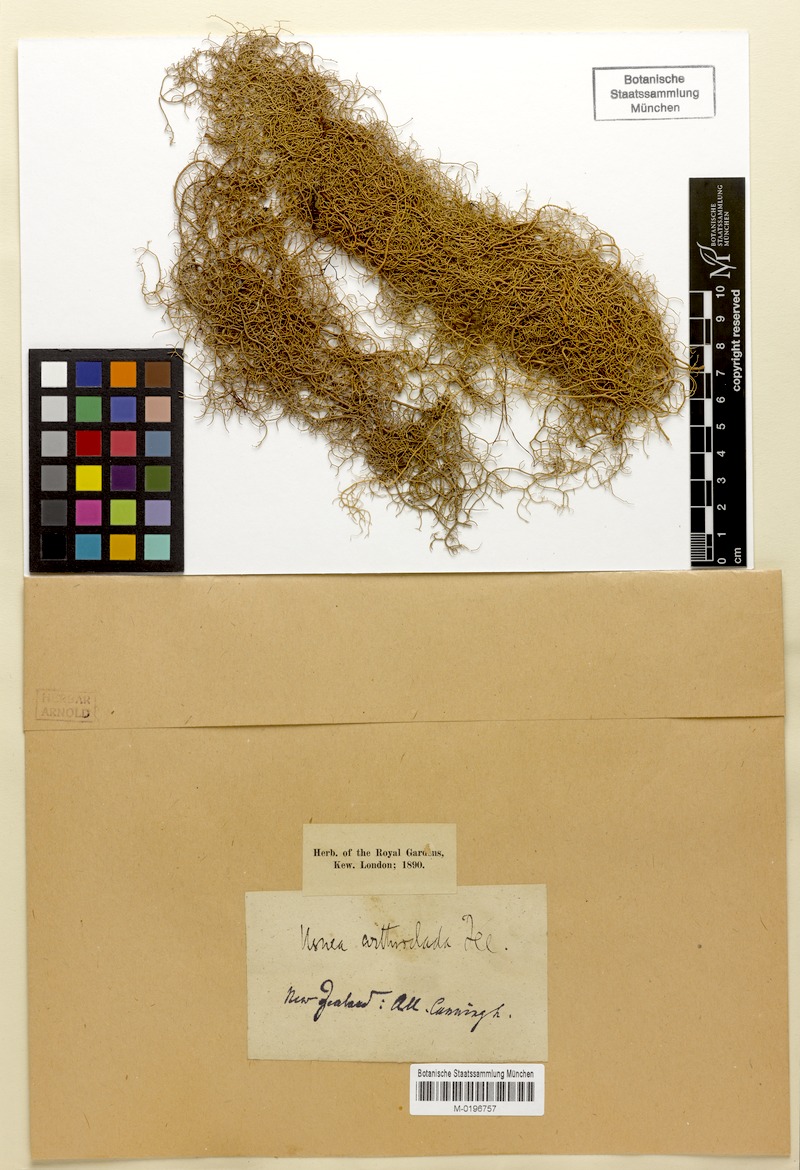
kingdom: Fungi
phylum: Ascomycota
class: Lecanoromycetes
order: Lecanorales
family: Parmeliaceae
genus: Usnea
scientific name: Usnea arthroclada
